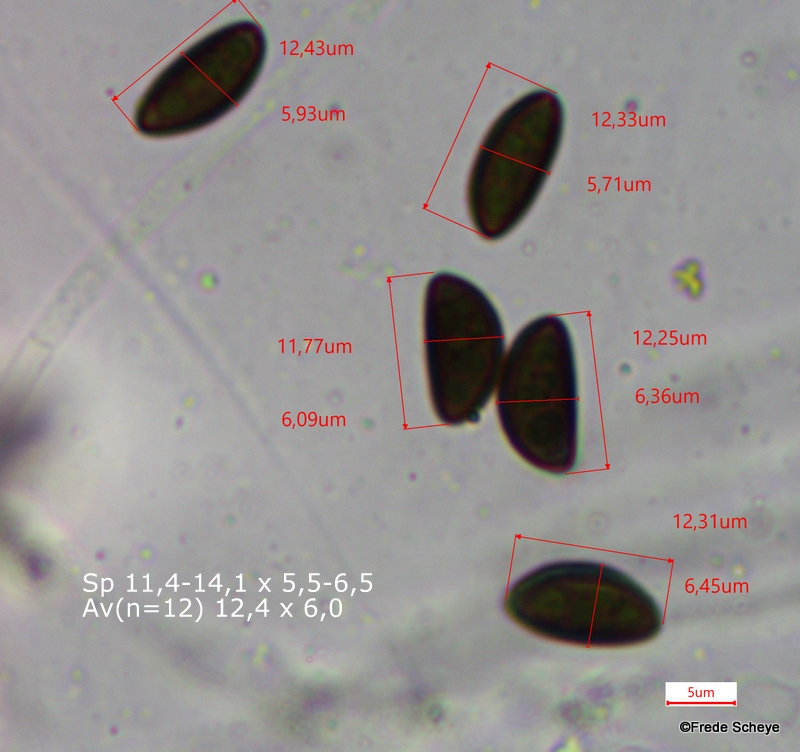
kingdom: Fungi
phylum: Ascomycota
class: Sordariomycetes
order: Xylariales
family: Hypoxylaceae
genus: Hypoxylon
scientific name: Hypoxylon fragiforme
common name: kuljordbær
